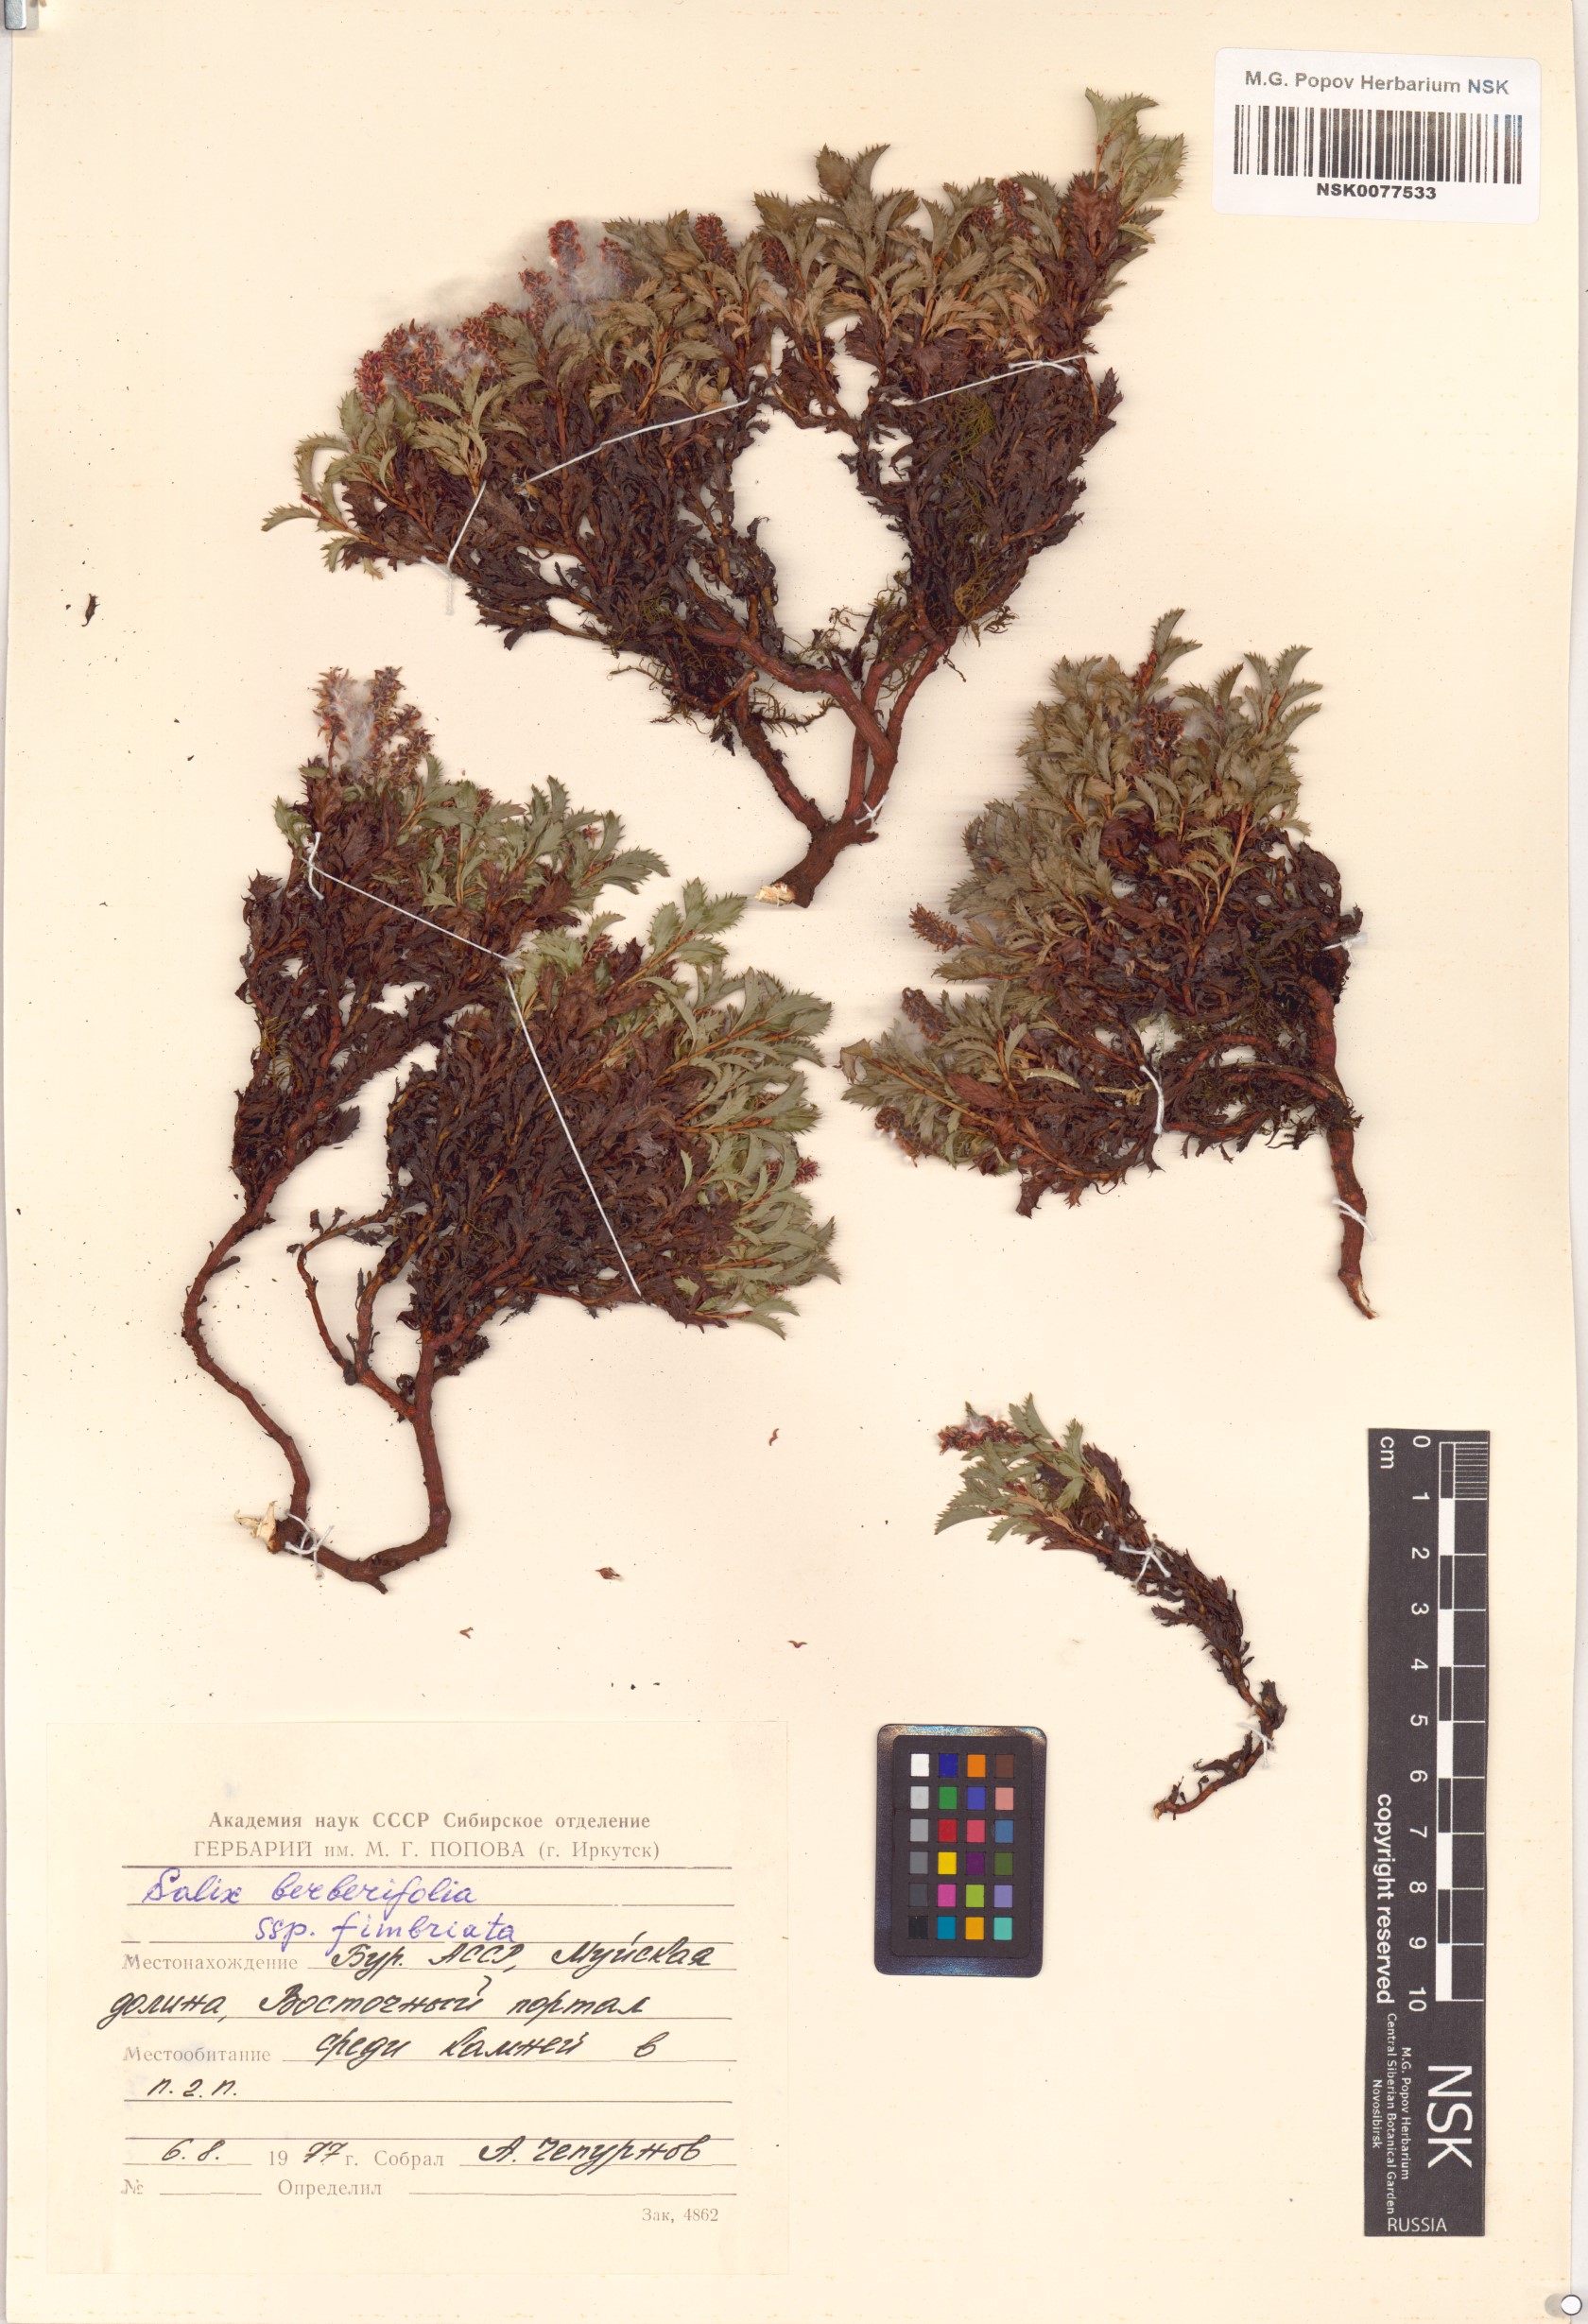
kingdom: Plantae
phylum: Tracheophyta
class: Magnoliopsida
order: Malpighiales
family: Salicaceae
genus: Salix
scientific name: Salix berberifolia
